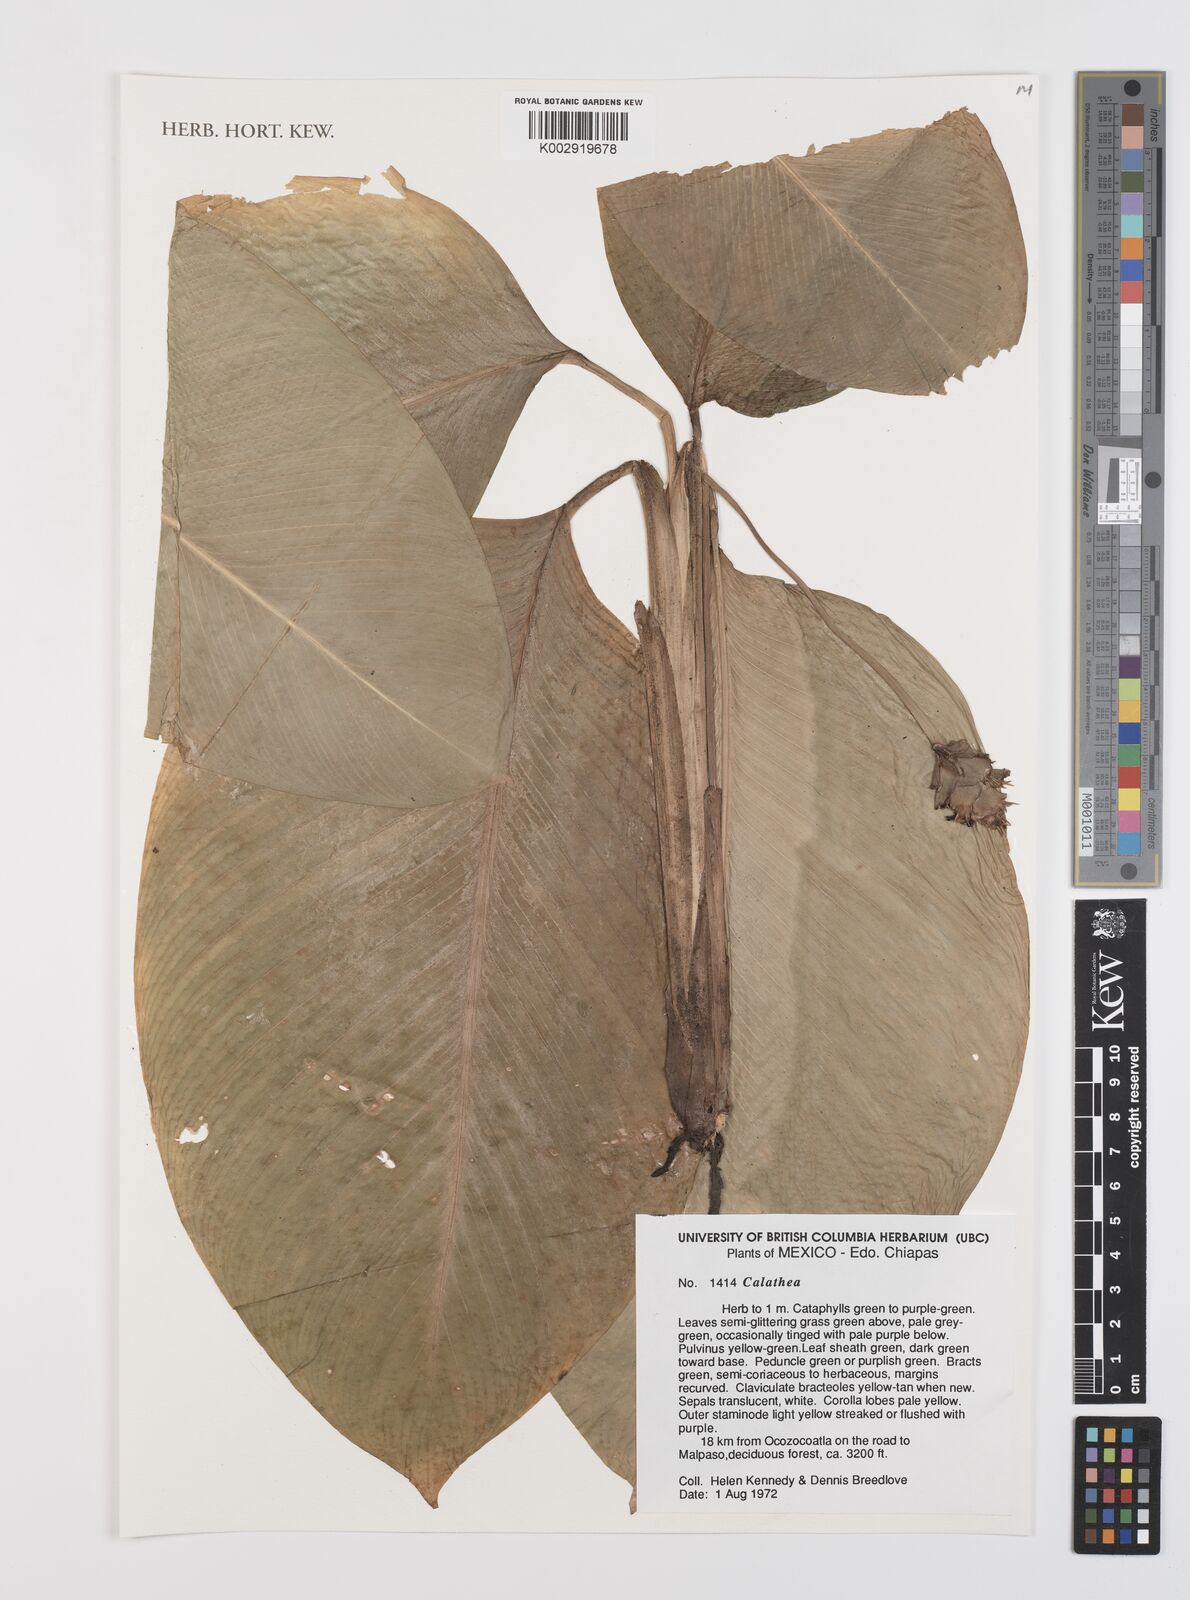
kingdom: Plantae
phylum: Tracheophyta
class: Liliopsida
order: Zingiberales
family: Marantaceae
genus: Calathea
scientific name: Calathea
